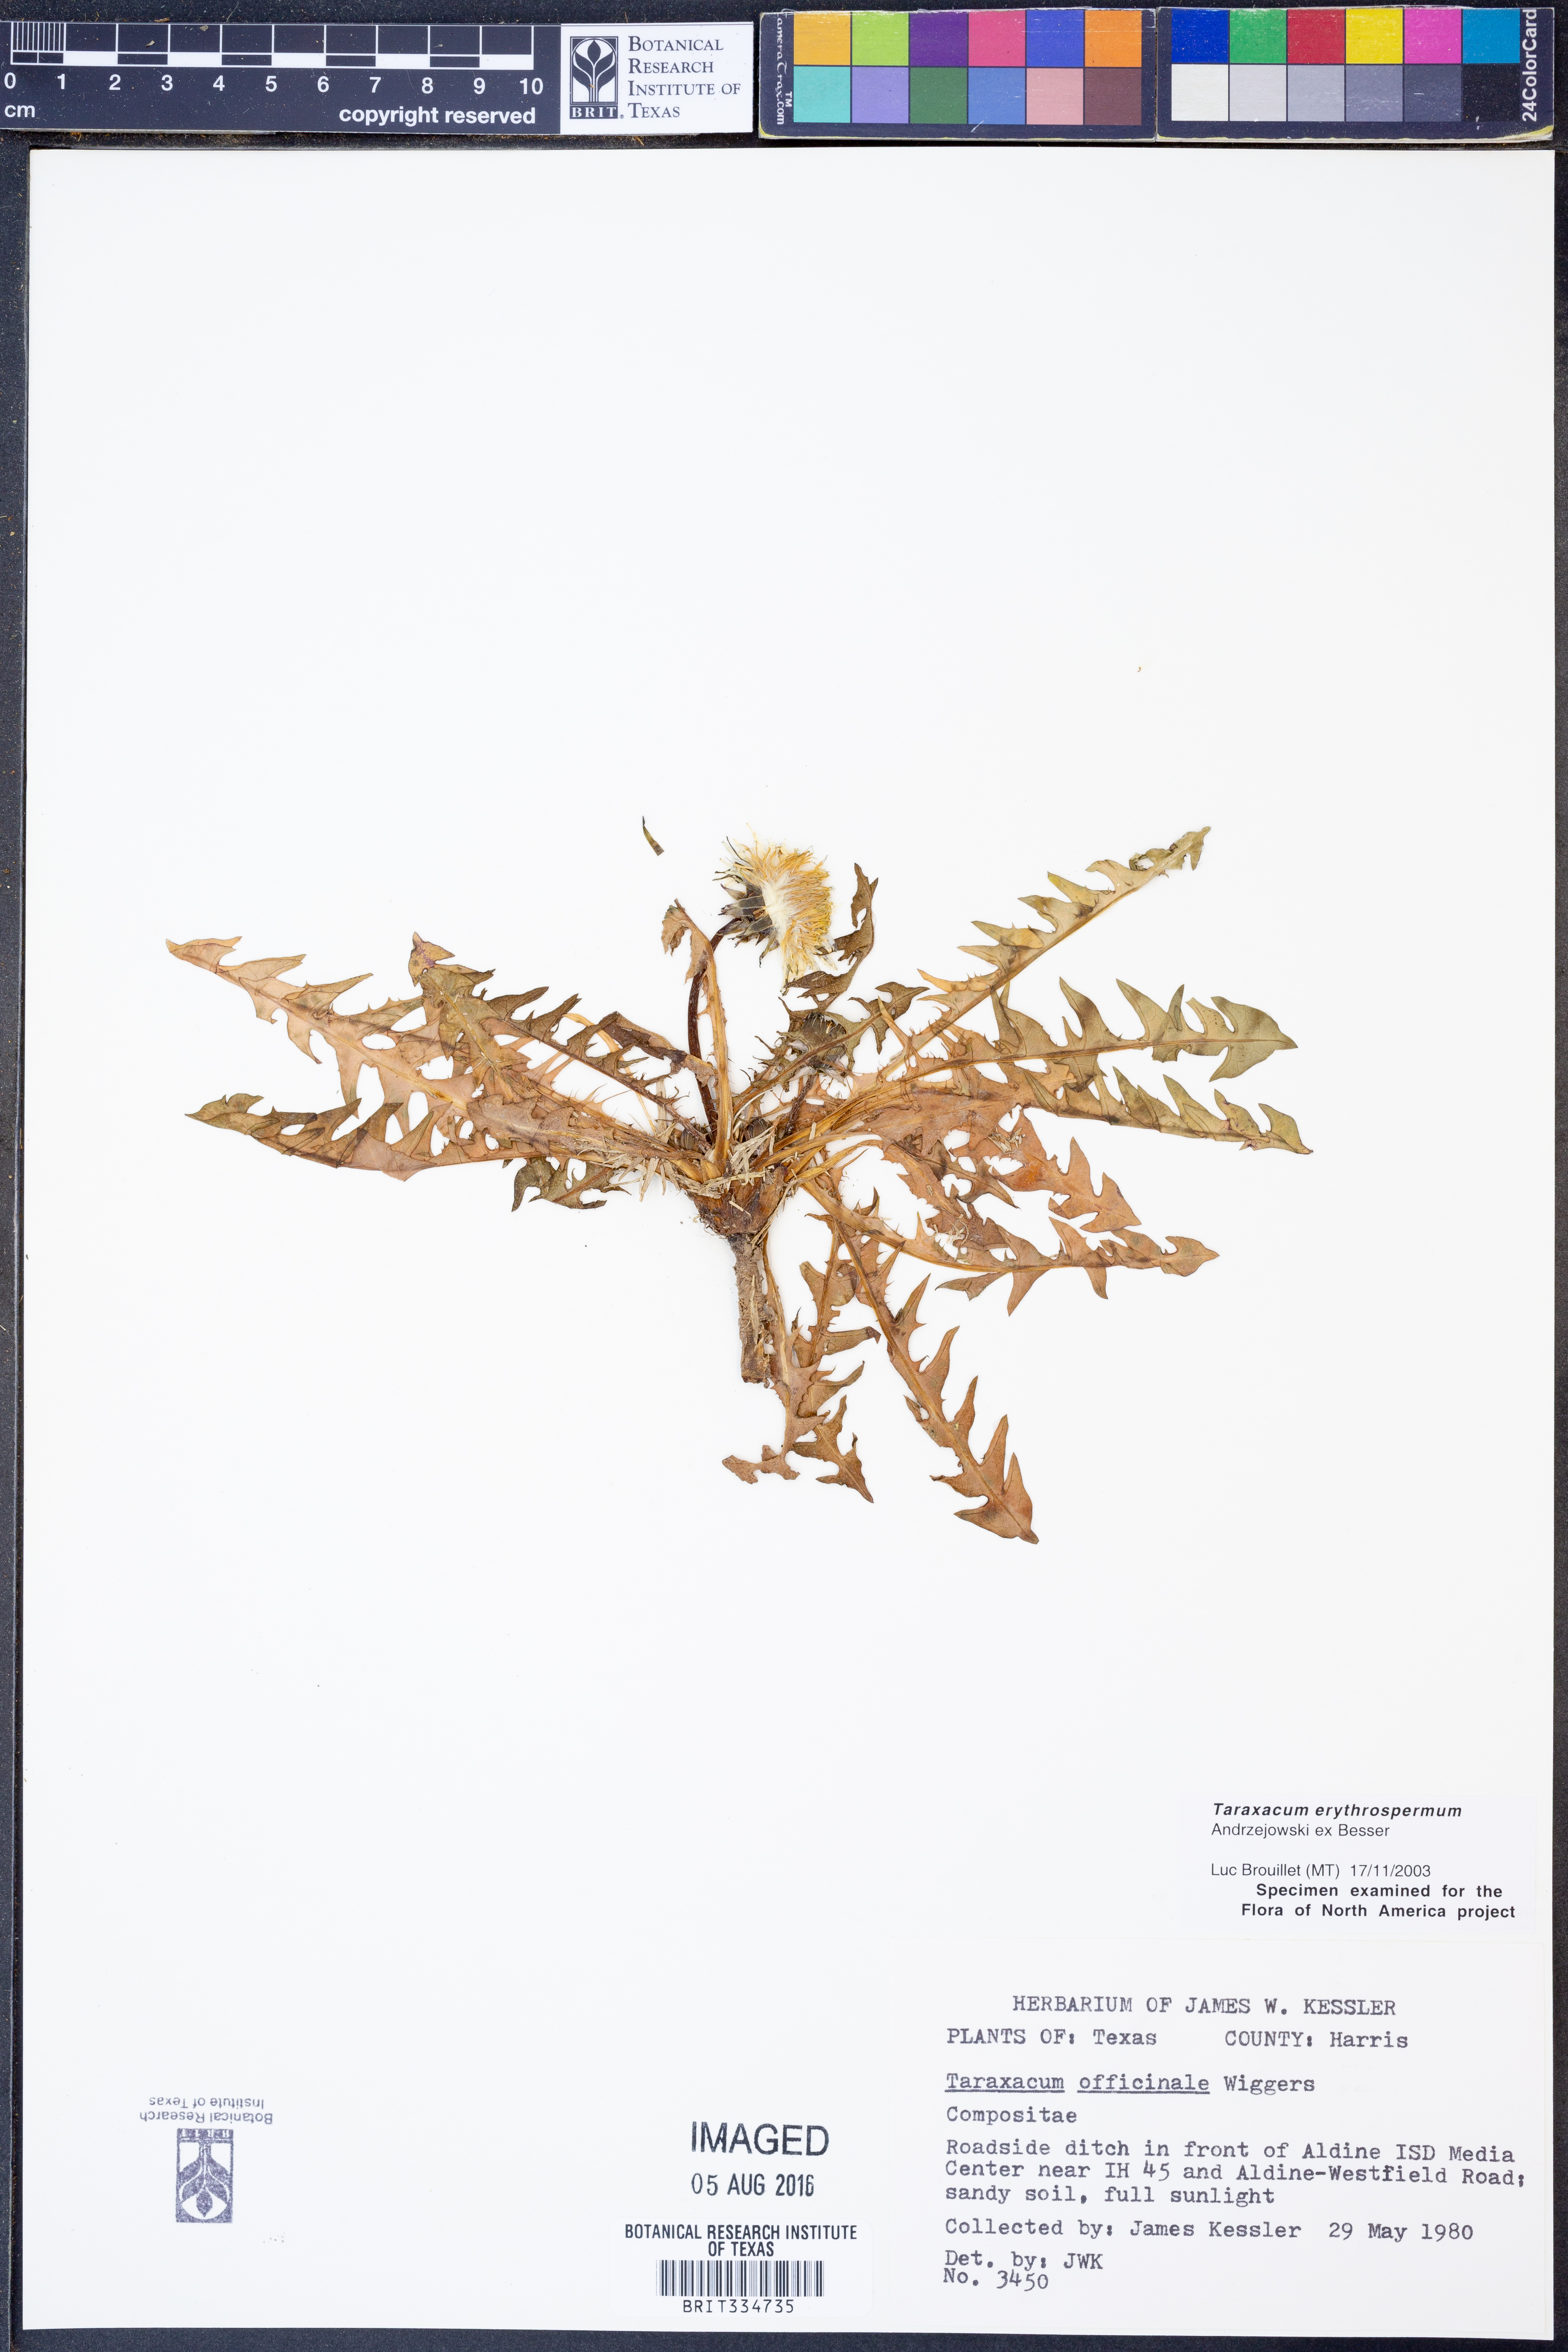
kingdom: Plantae
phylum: Tracheophyta
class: Magnoliopsida
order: Asterales
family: Asteraceae
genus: Taraxacum
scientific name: Taraxacum erythrospermum
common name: Rock dandelion
